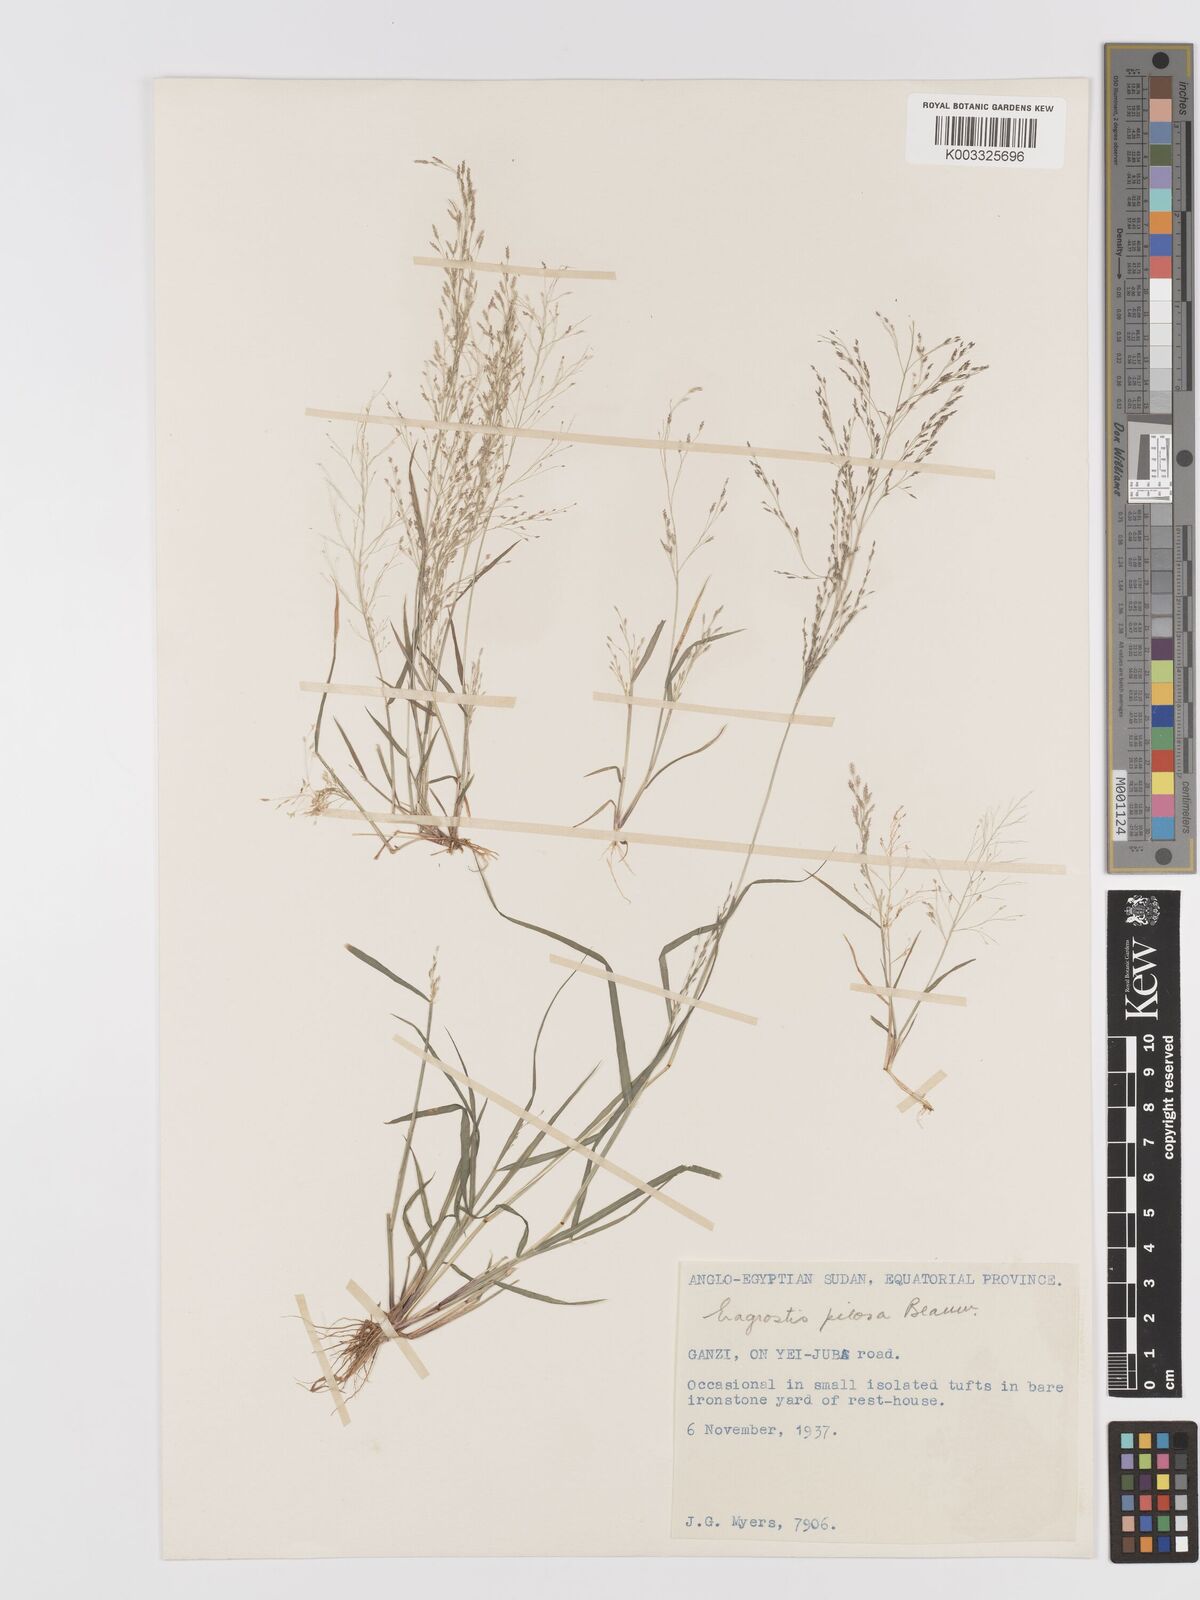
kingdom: Plantae
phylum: Tracheophyta
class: Liliopsida
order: Poales
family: Poaceae
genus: Eragrostis
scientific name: Eragrostis pilosa
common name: Indian lovegrass
